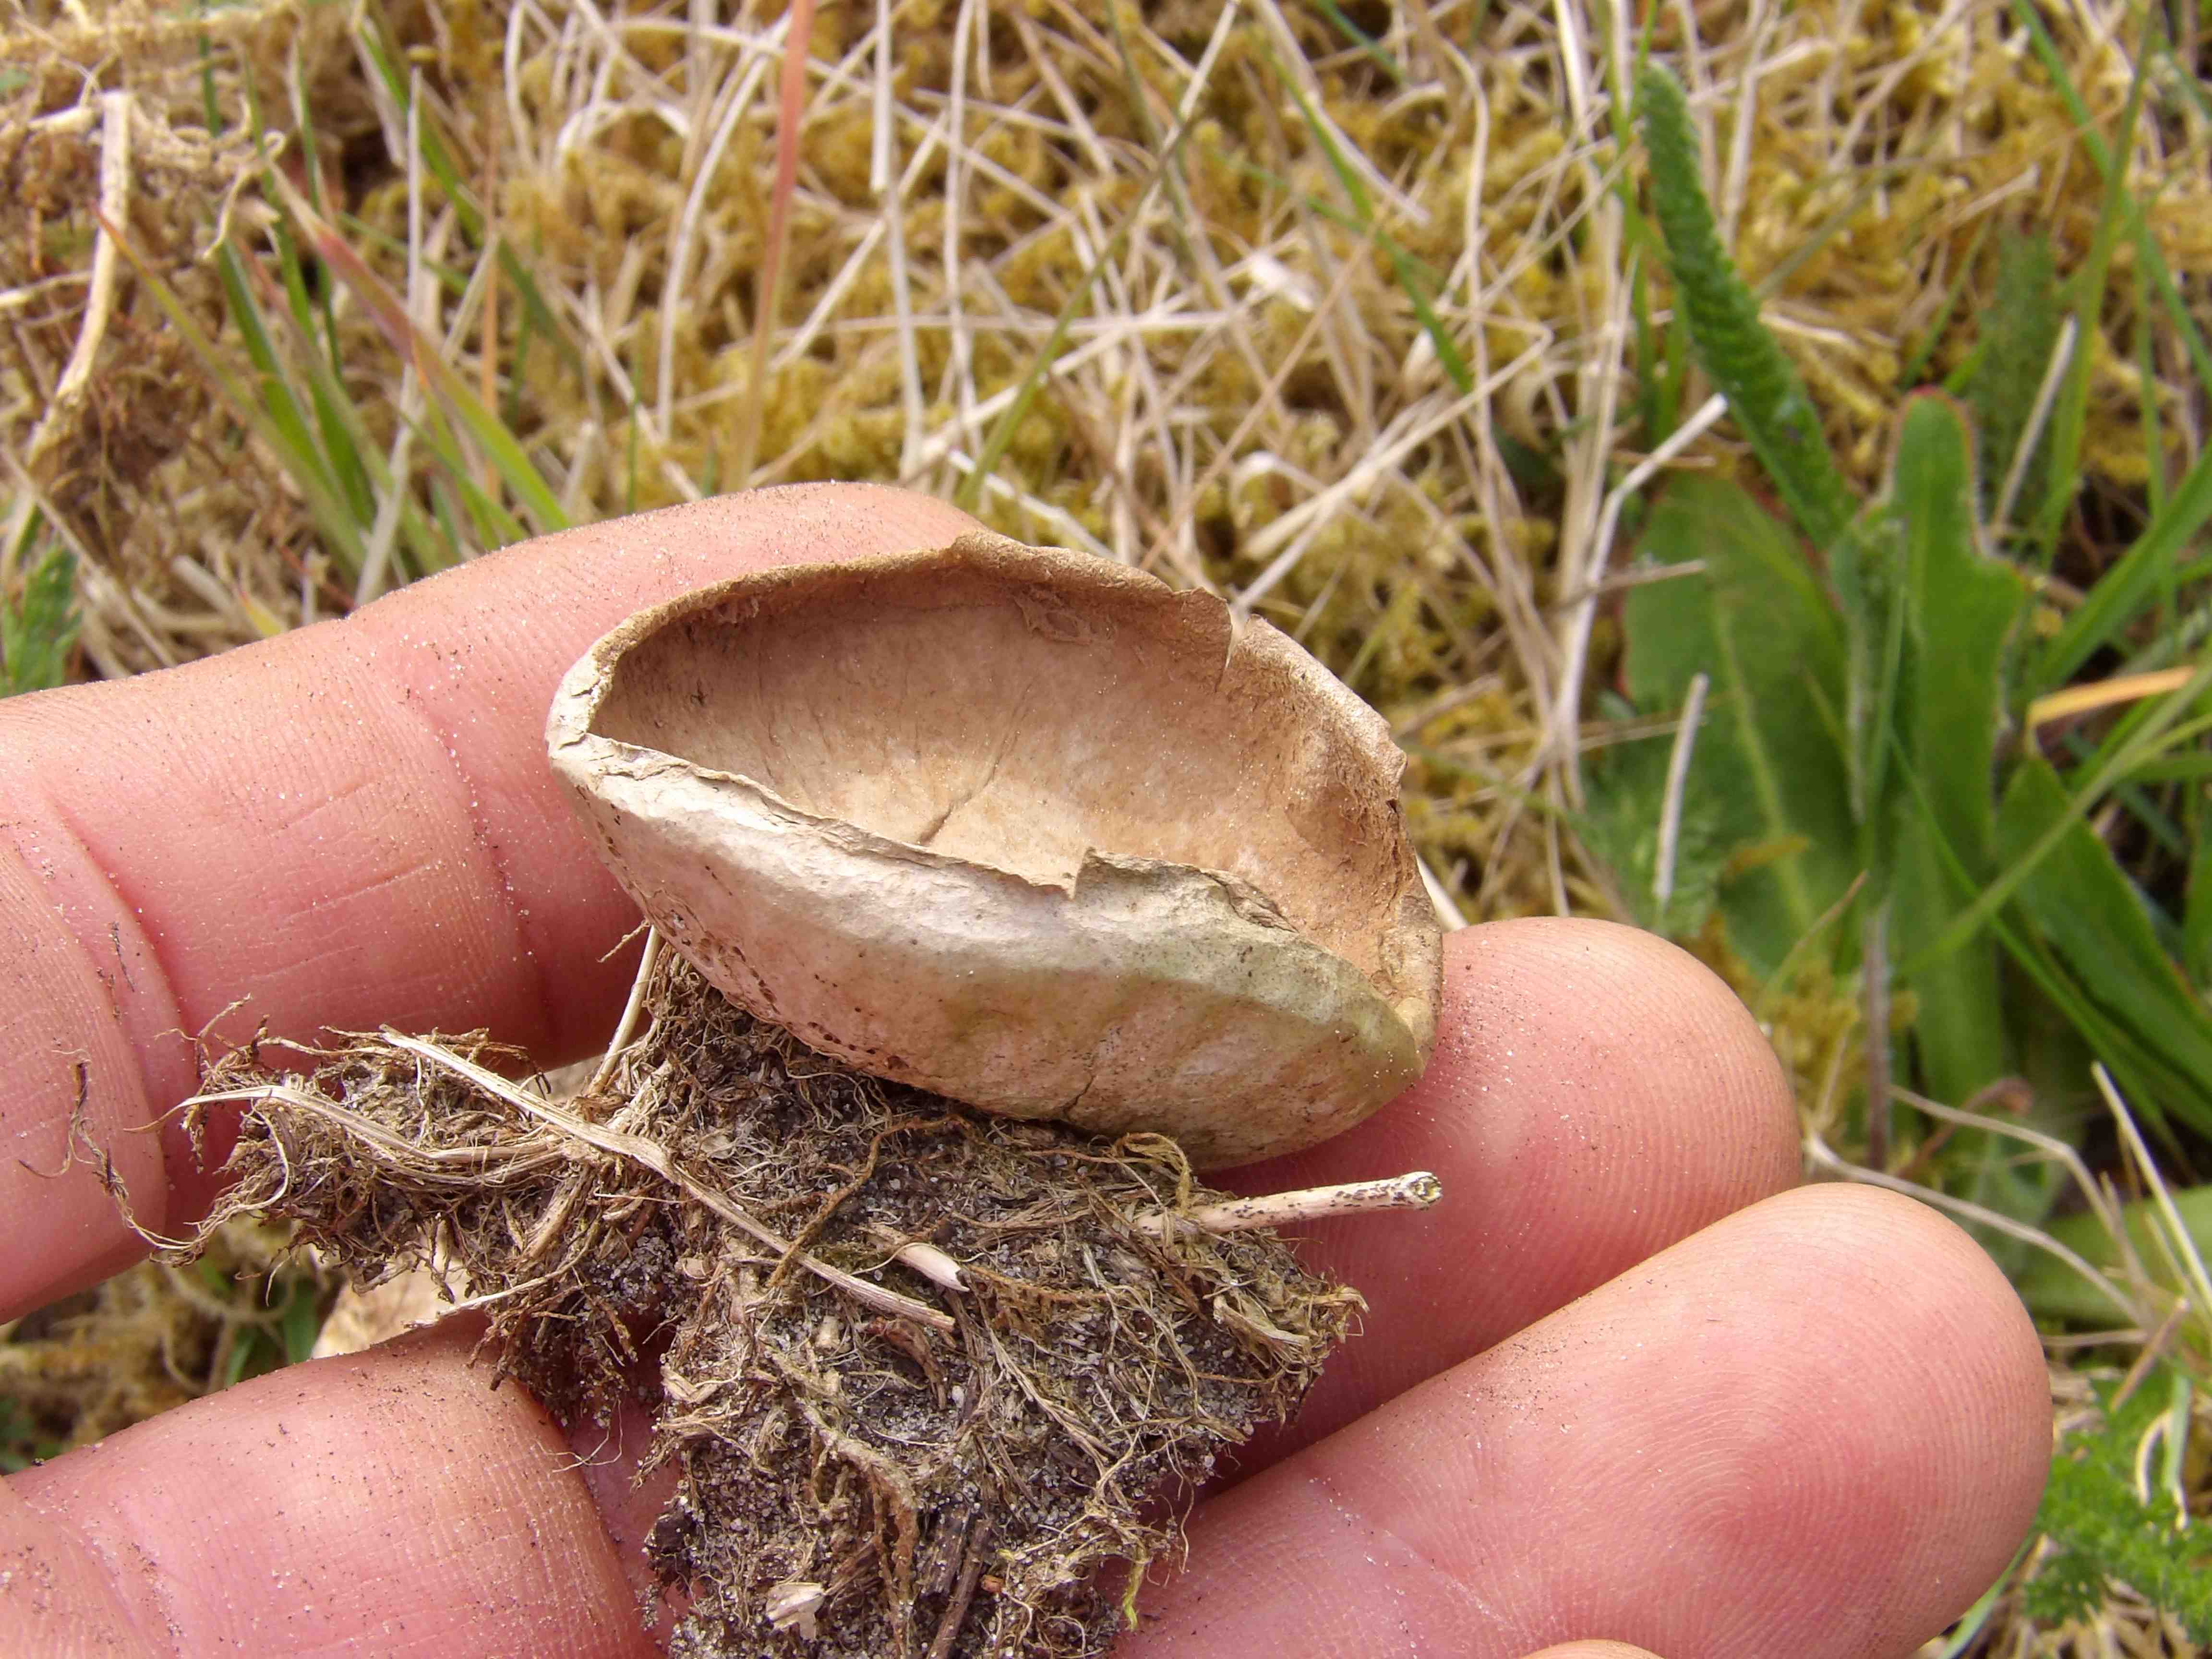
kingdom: Fungi
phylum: Basidiomycota
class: Agaricomycetes
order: Agaricales
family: Lycoperdaceae
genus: Lycoperdon
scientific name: Lycoperdon pratense
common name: flad støvbold
